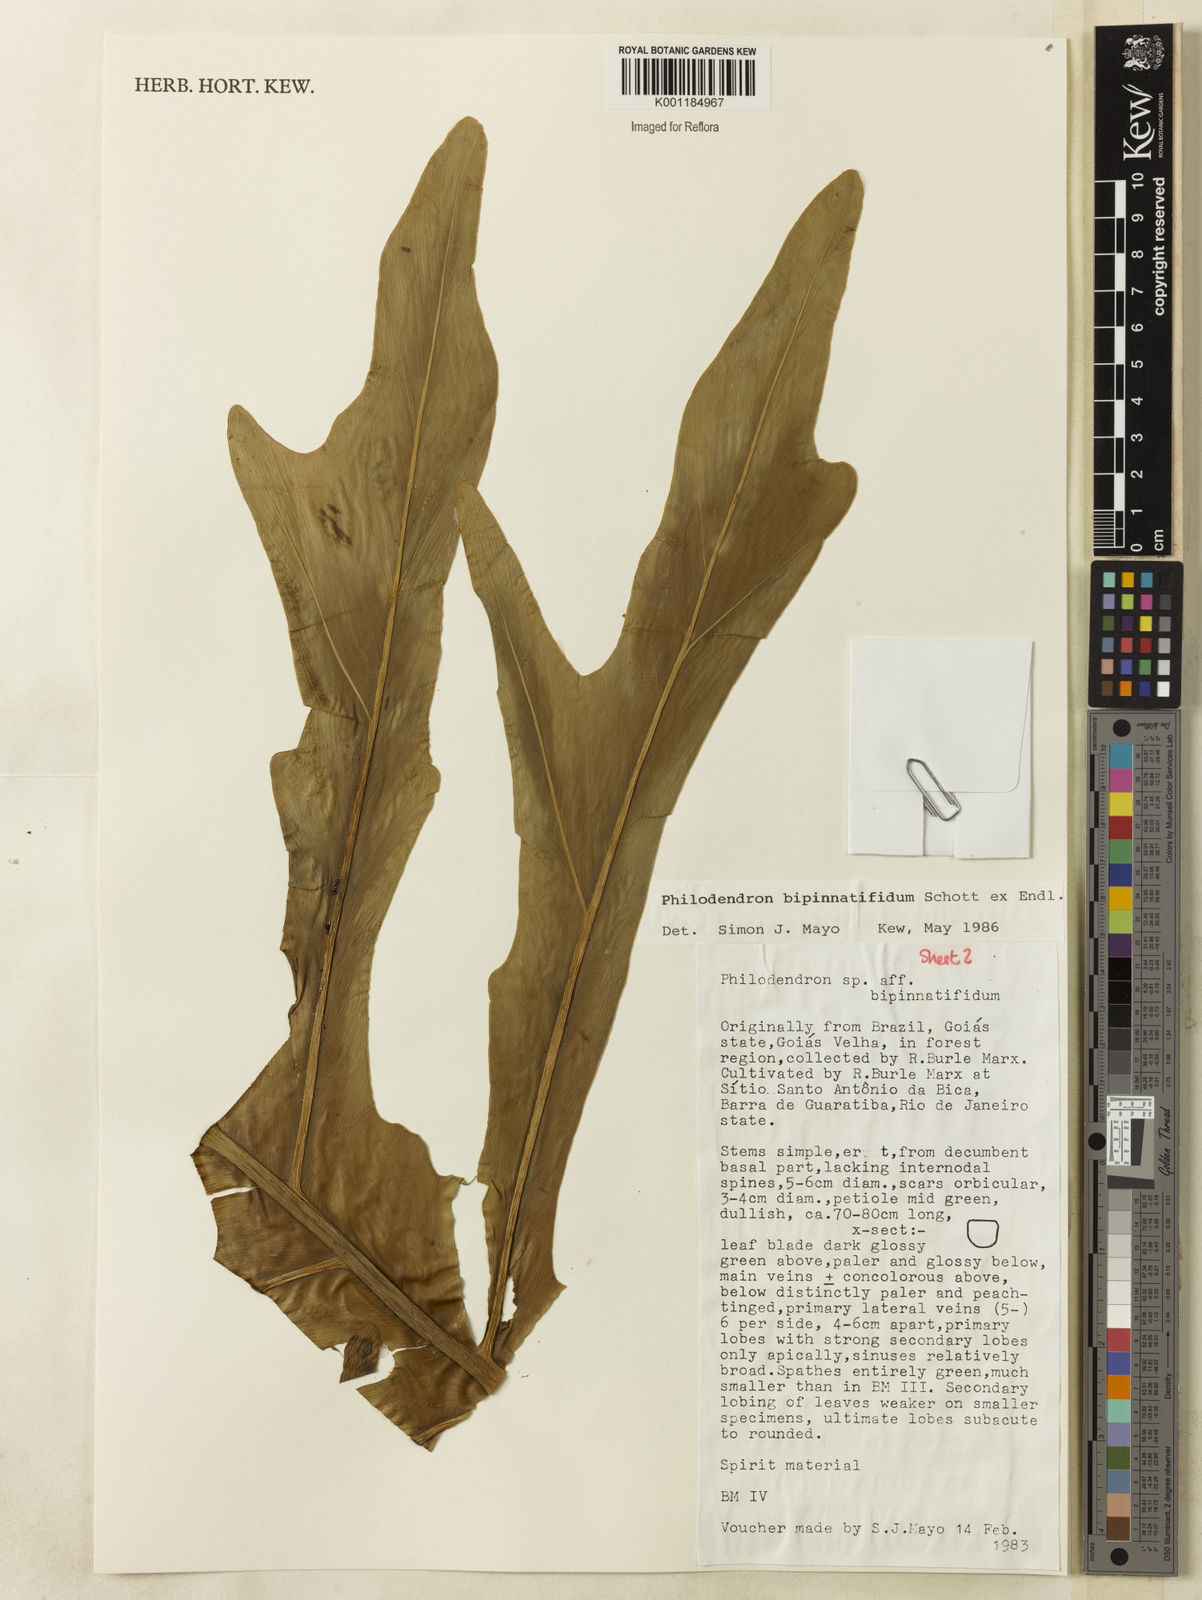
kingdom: Plantae
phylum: Tracheophyta
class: Liliopsida
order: Alismatales
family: Araceae
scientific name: Araceae
